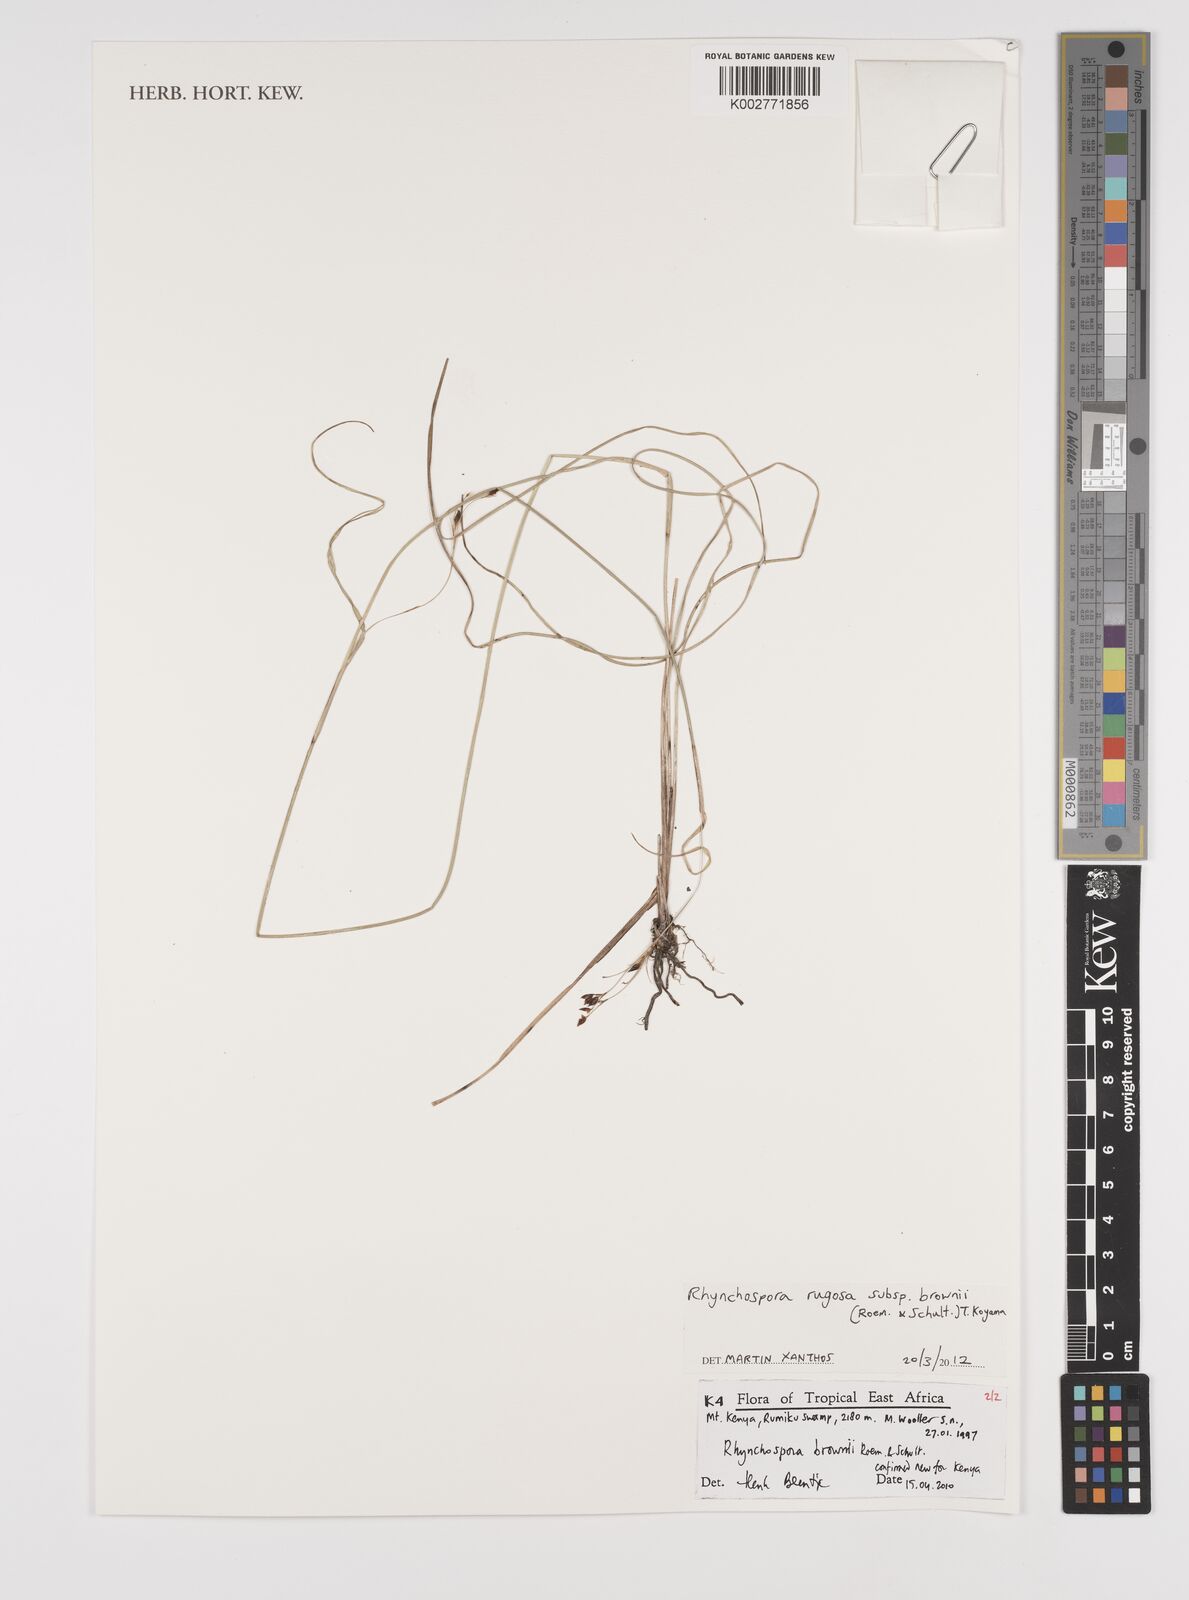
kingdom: Plantae
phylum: Tracheophyta
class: Liliopsida
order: Poales
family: Cyperaceae
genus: Rhynchospora
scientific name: Rhynchospora brownii
